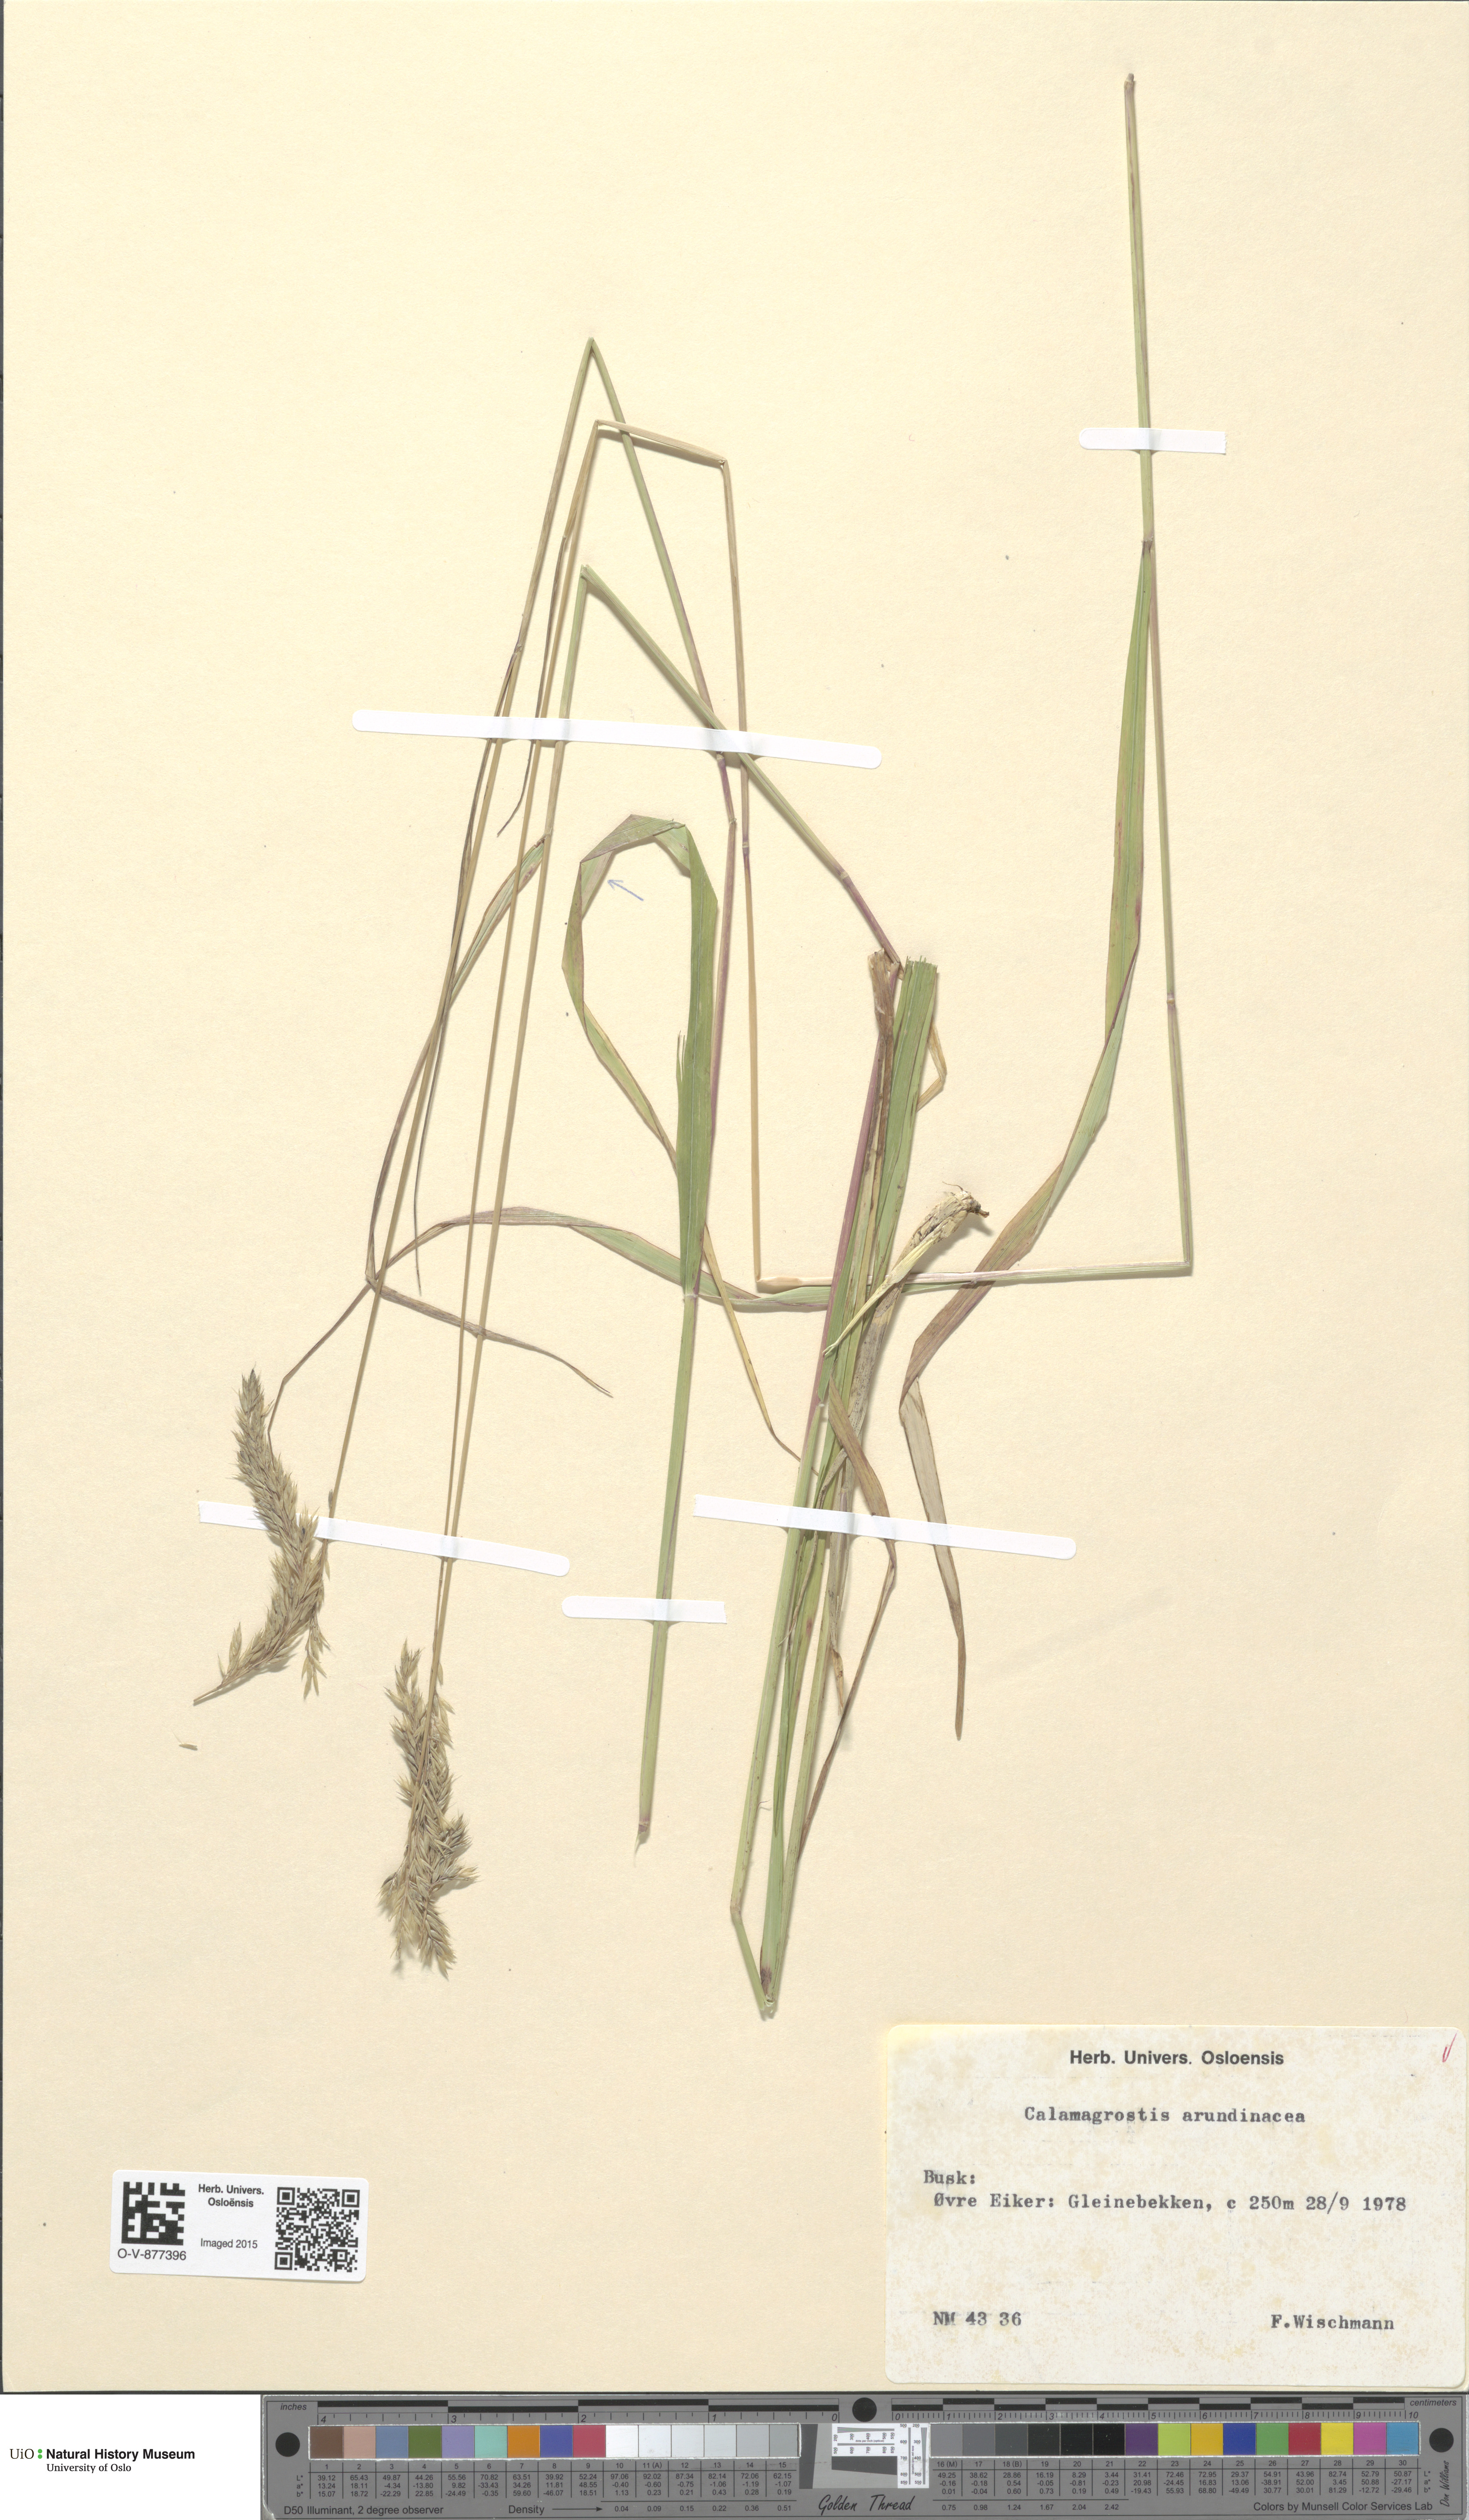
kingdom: Plantae
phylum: Tracheophyta
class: Liliopsida
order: Poales
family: Poaceae
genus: Calamagrostis
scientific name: Calamagrostis arundinacea
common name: Metskastik
